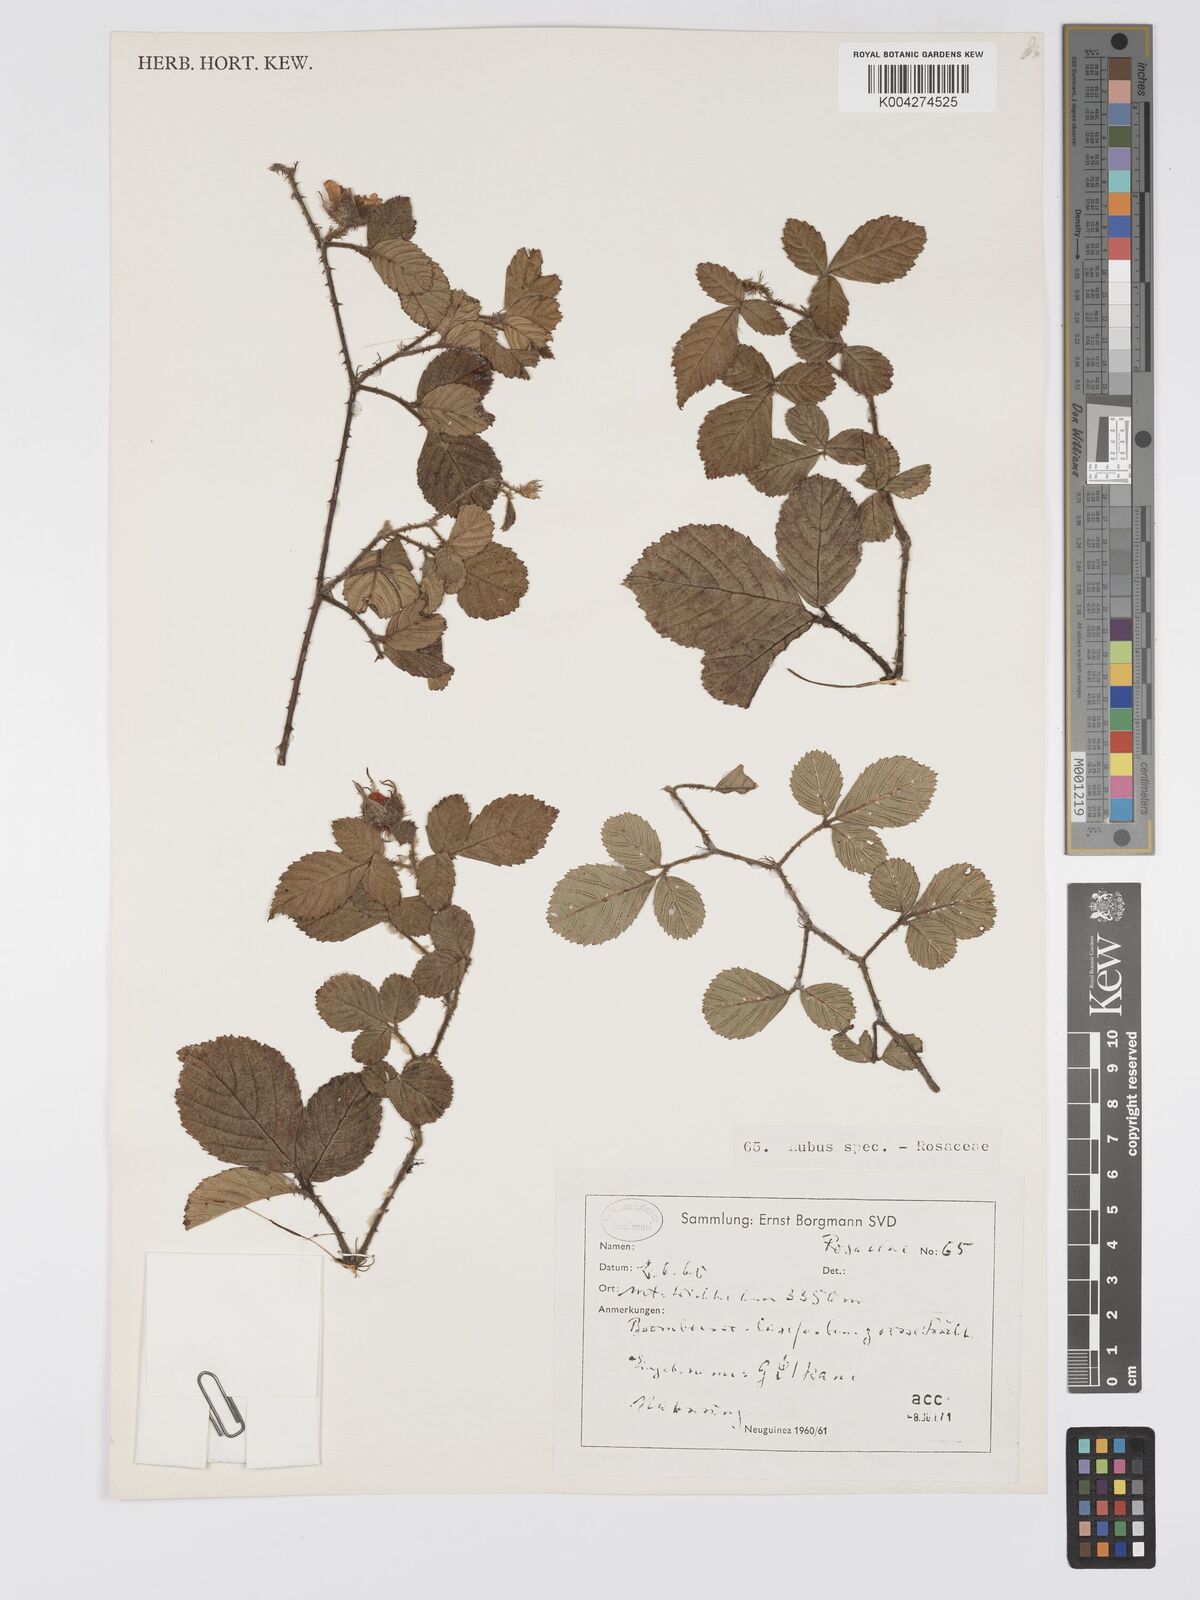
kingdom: Plantae
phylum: Tracheophyta
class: Magnoliopsida
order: Rosales
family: Rosaceae
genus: Rubus
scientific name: Rubus archboldianus
